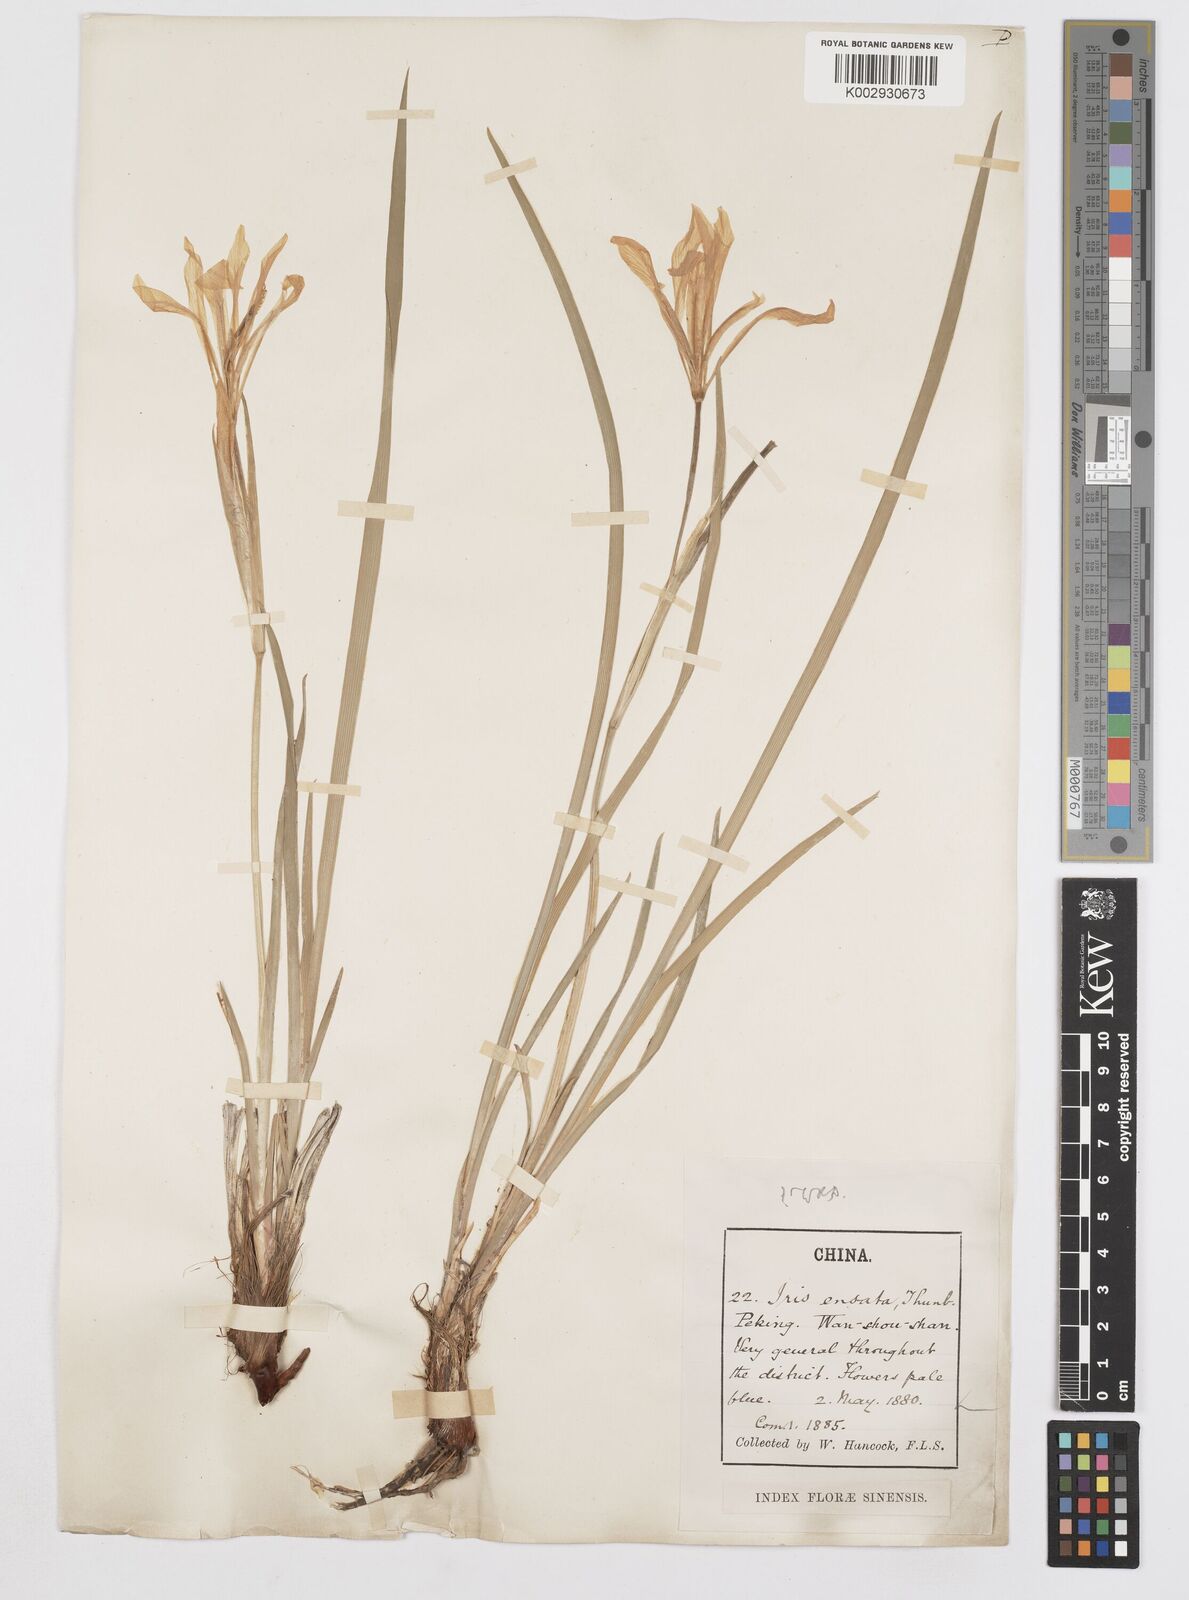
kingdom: Plantae
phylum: Tracheophyta
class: Liliopsida
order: Asparagales
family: Iridaceae
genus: Iris
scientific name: Iris ensata
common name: Beaked iris
